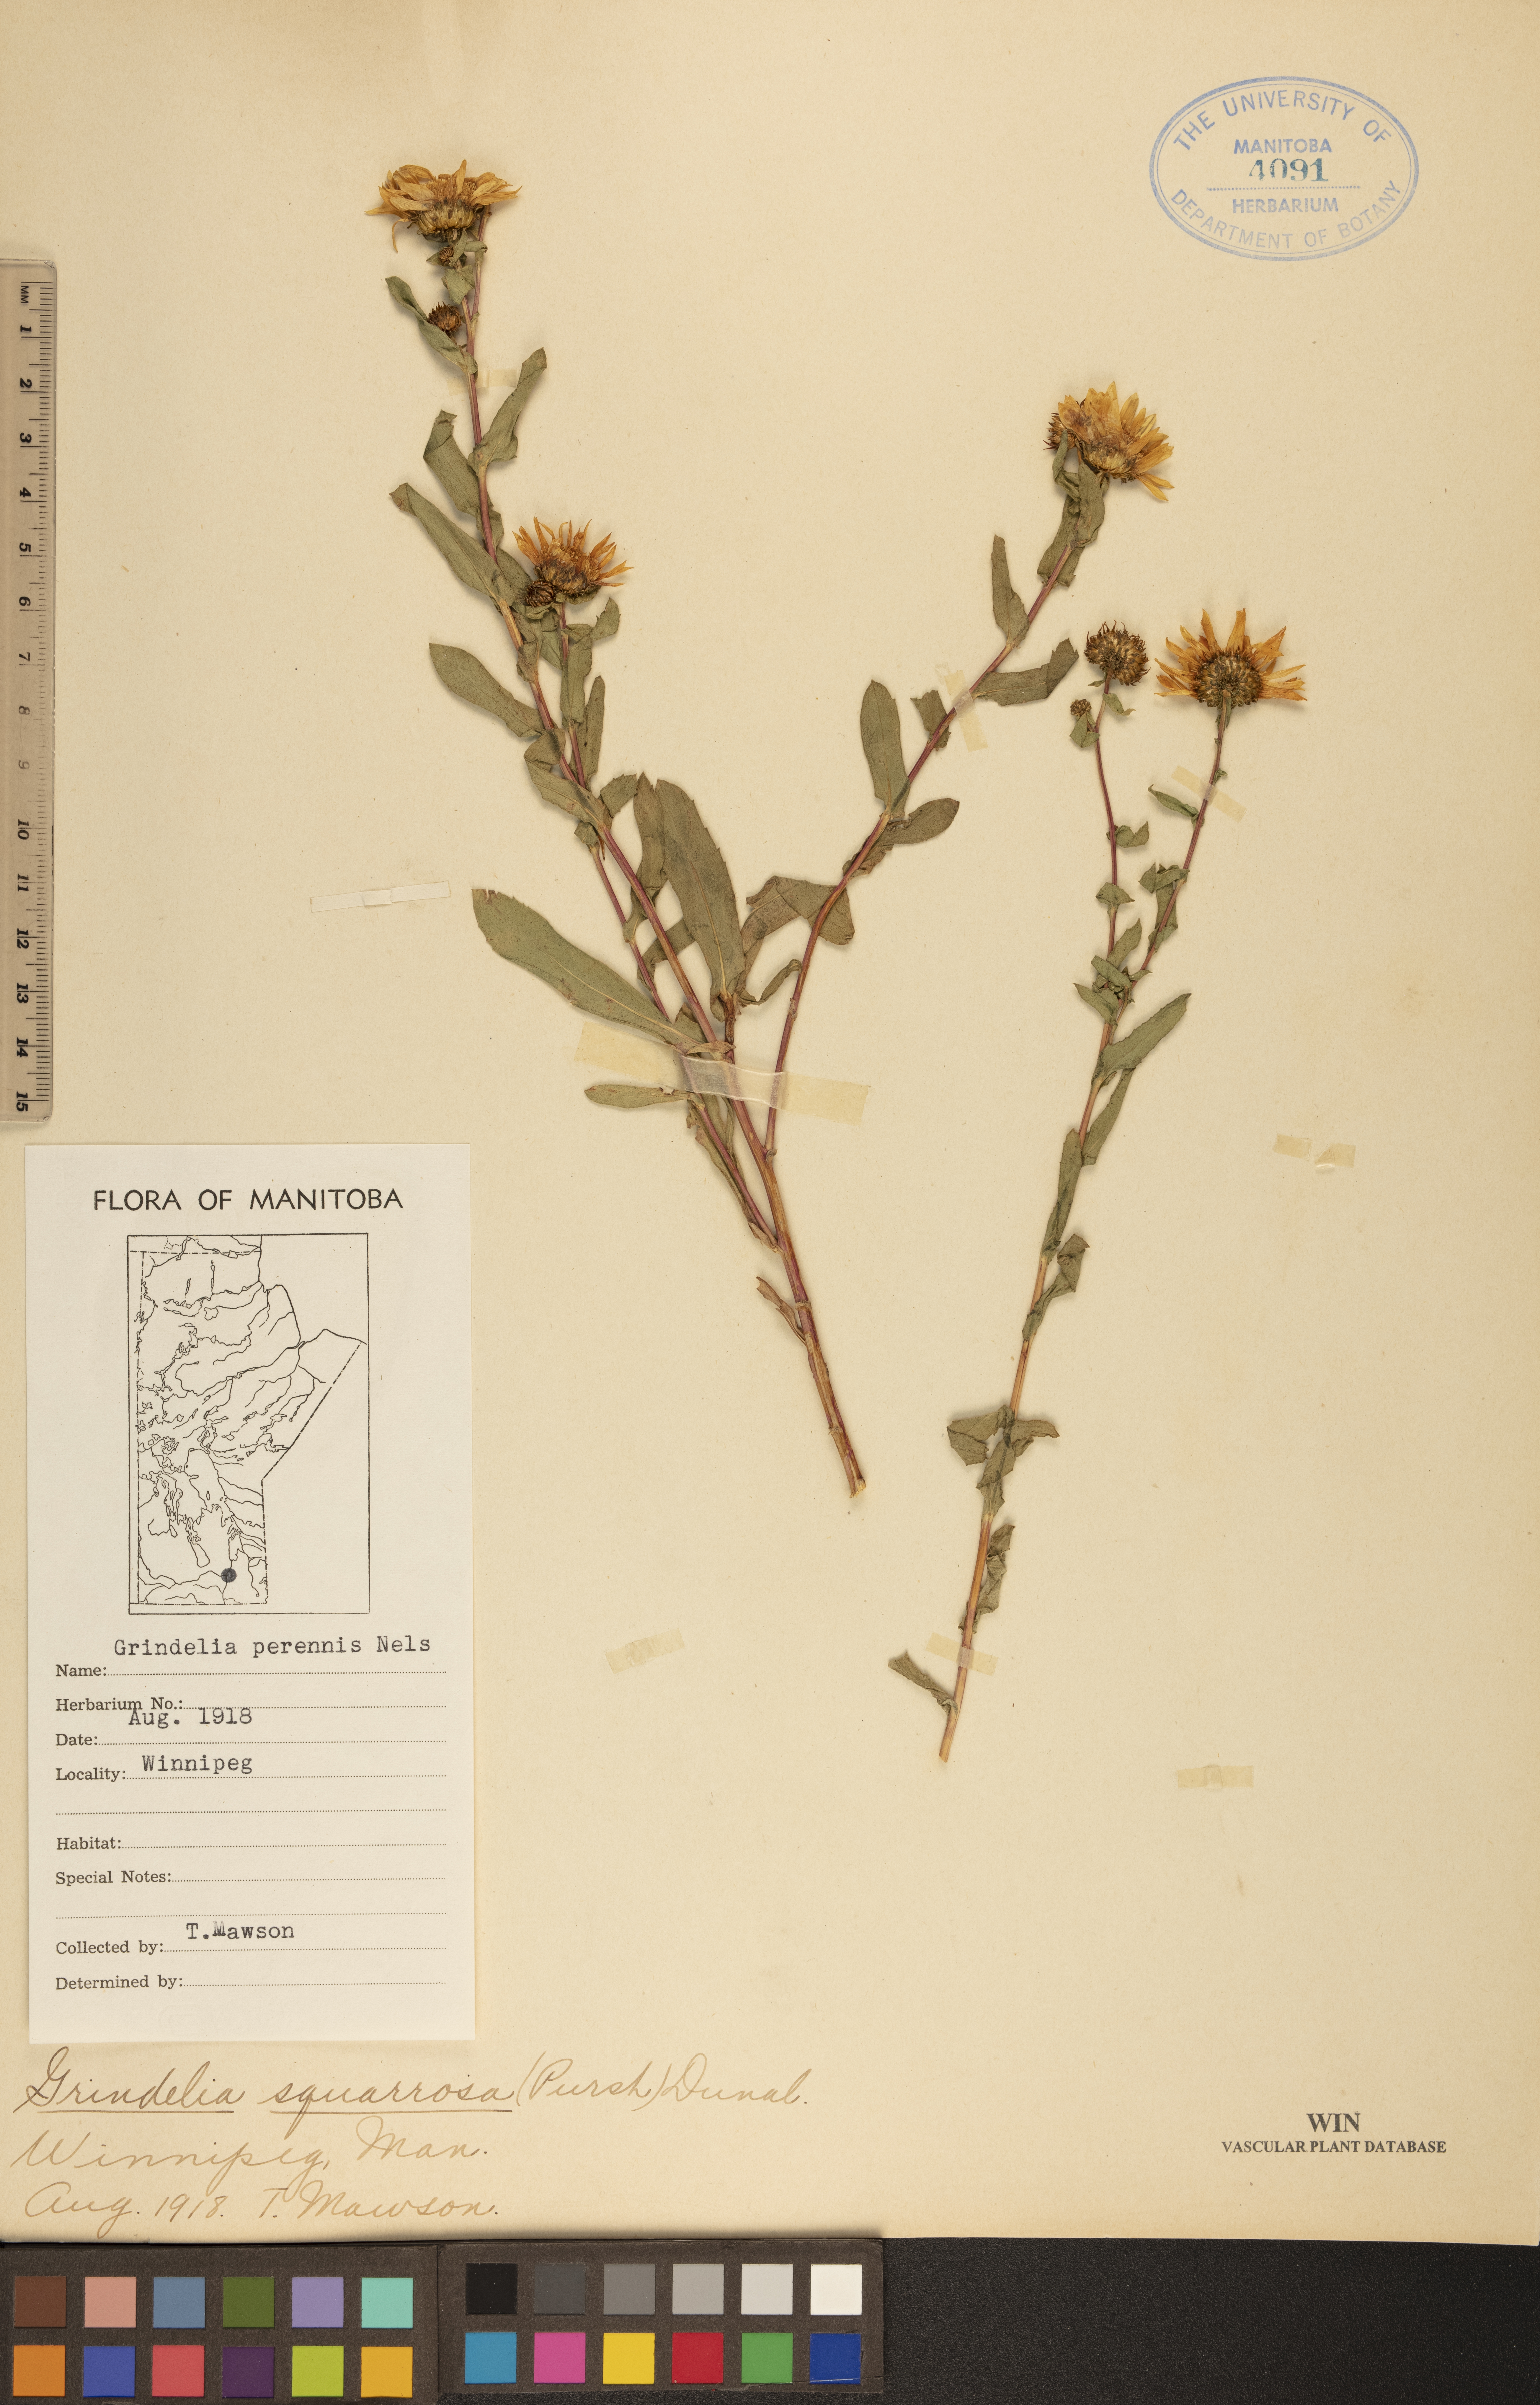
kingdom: Plantae
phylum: Tracheophyta
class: Magnoliopsida
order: Asterales
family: Asteraceae
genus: Grindelia
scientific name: Grindelia hirsutula
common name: Hairy gumweed
